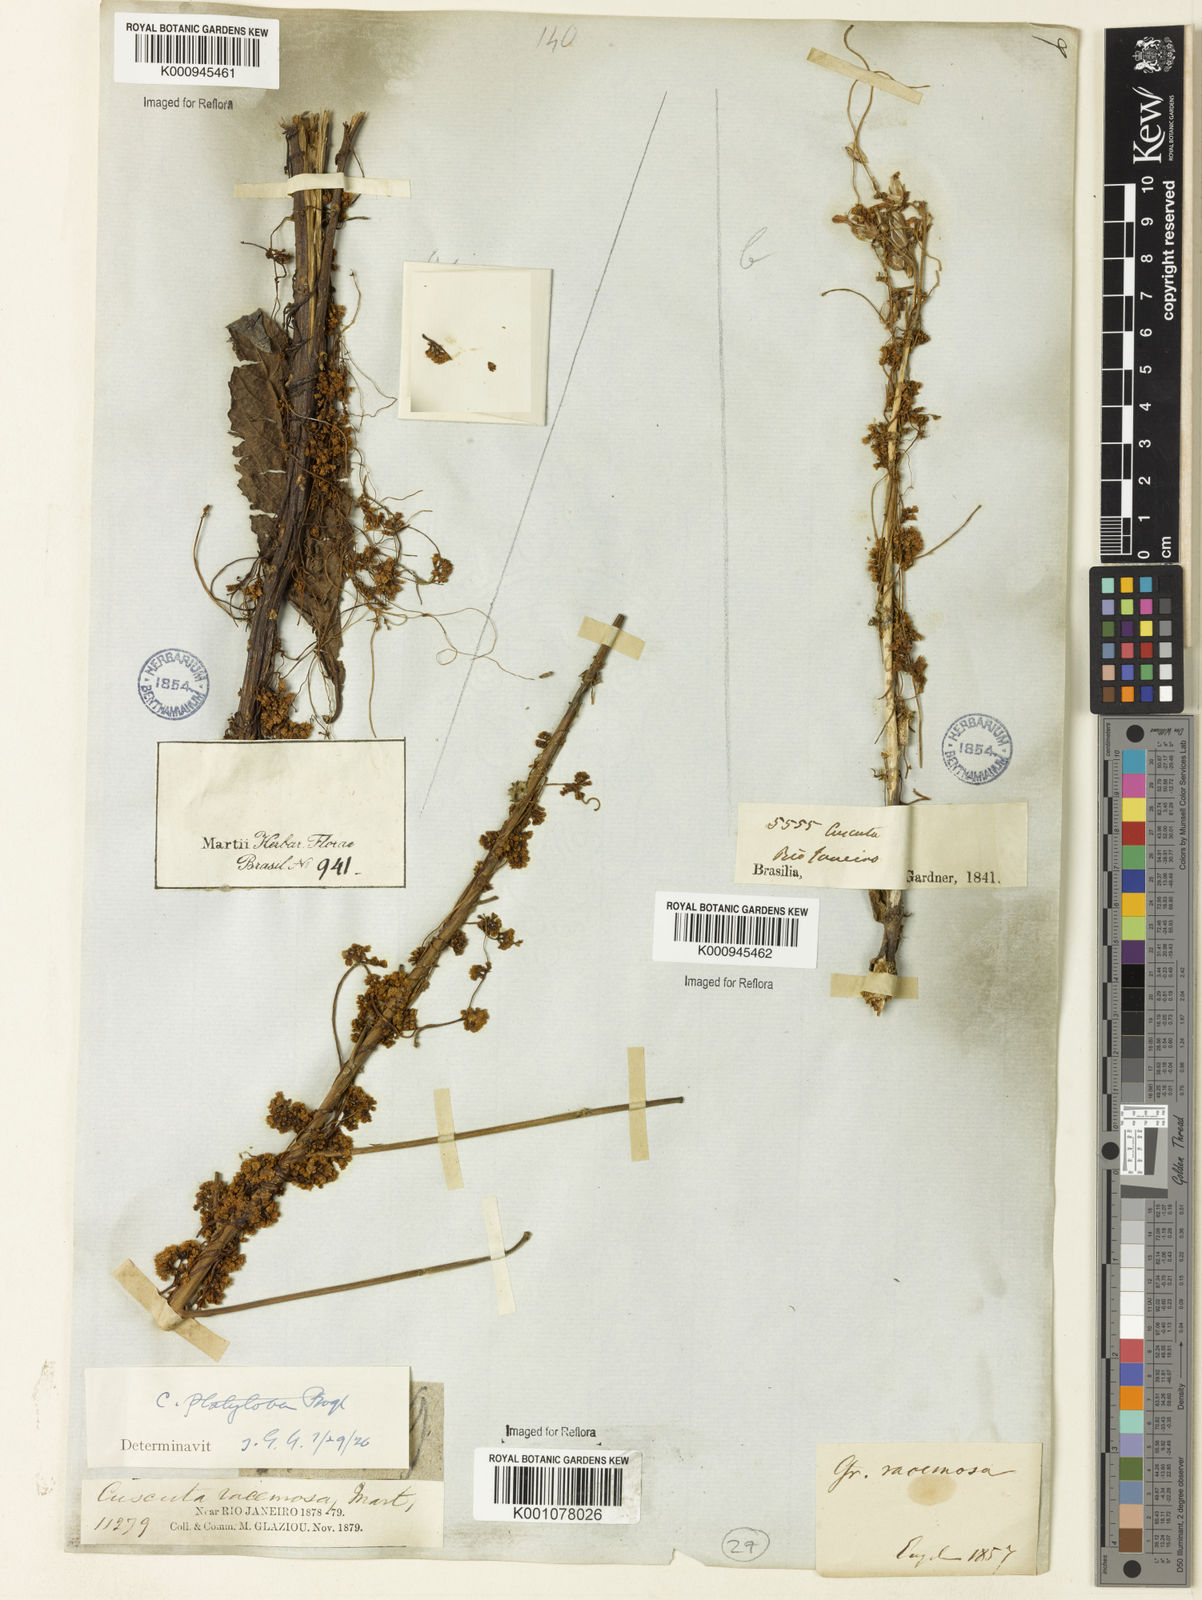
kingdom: Plantae
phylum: Tracheophyta
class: Magnoliopsida
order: Solanales
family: Convolvulaceae
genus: Cuscuta
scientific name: Cuscuta platyloba
